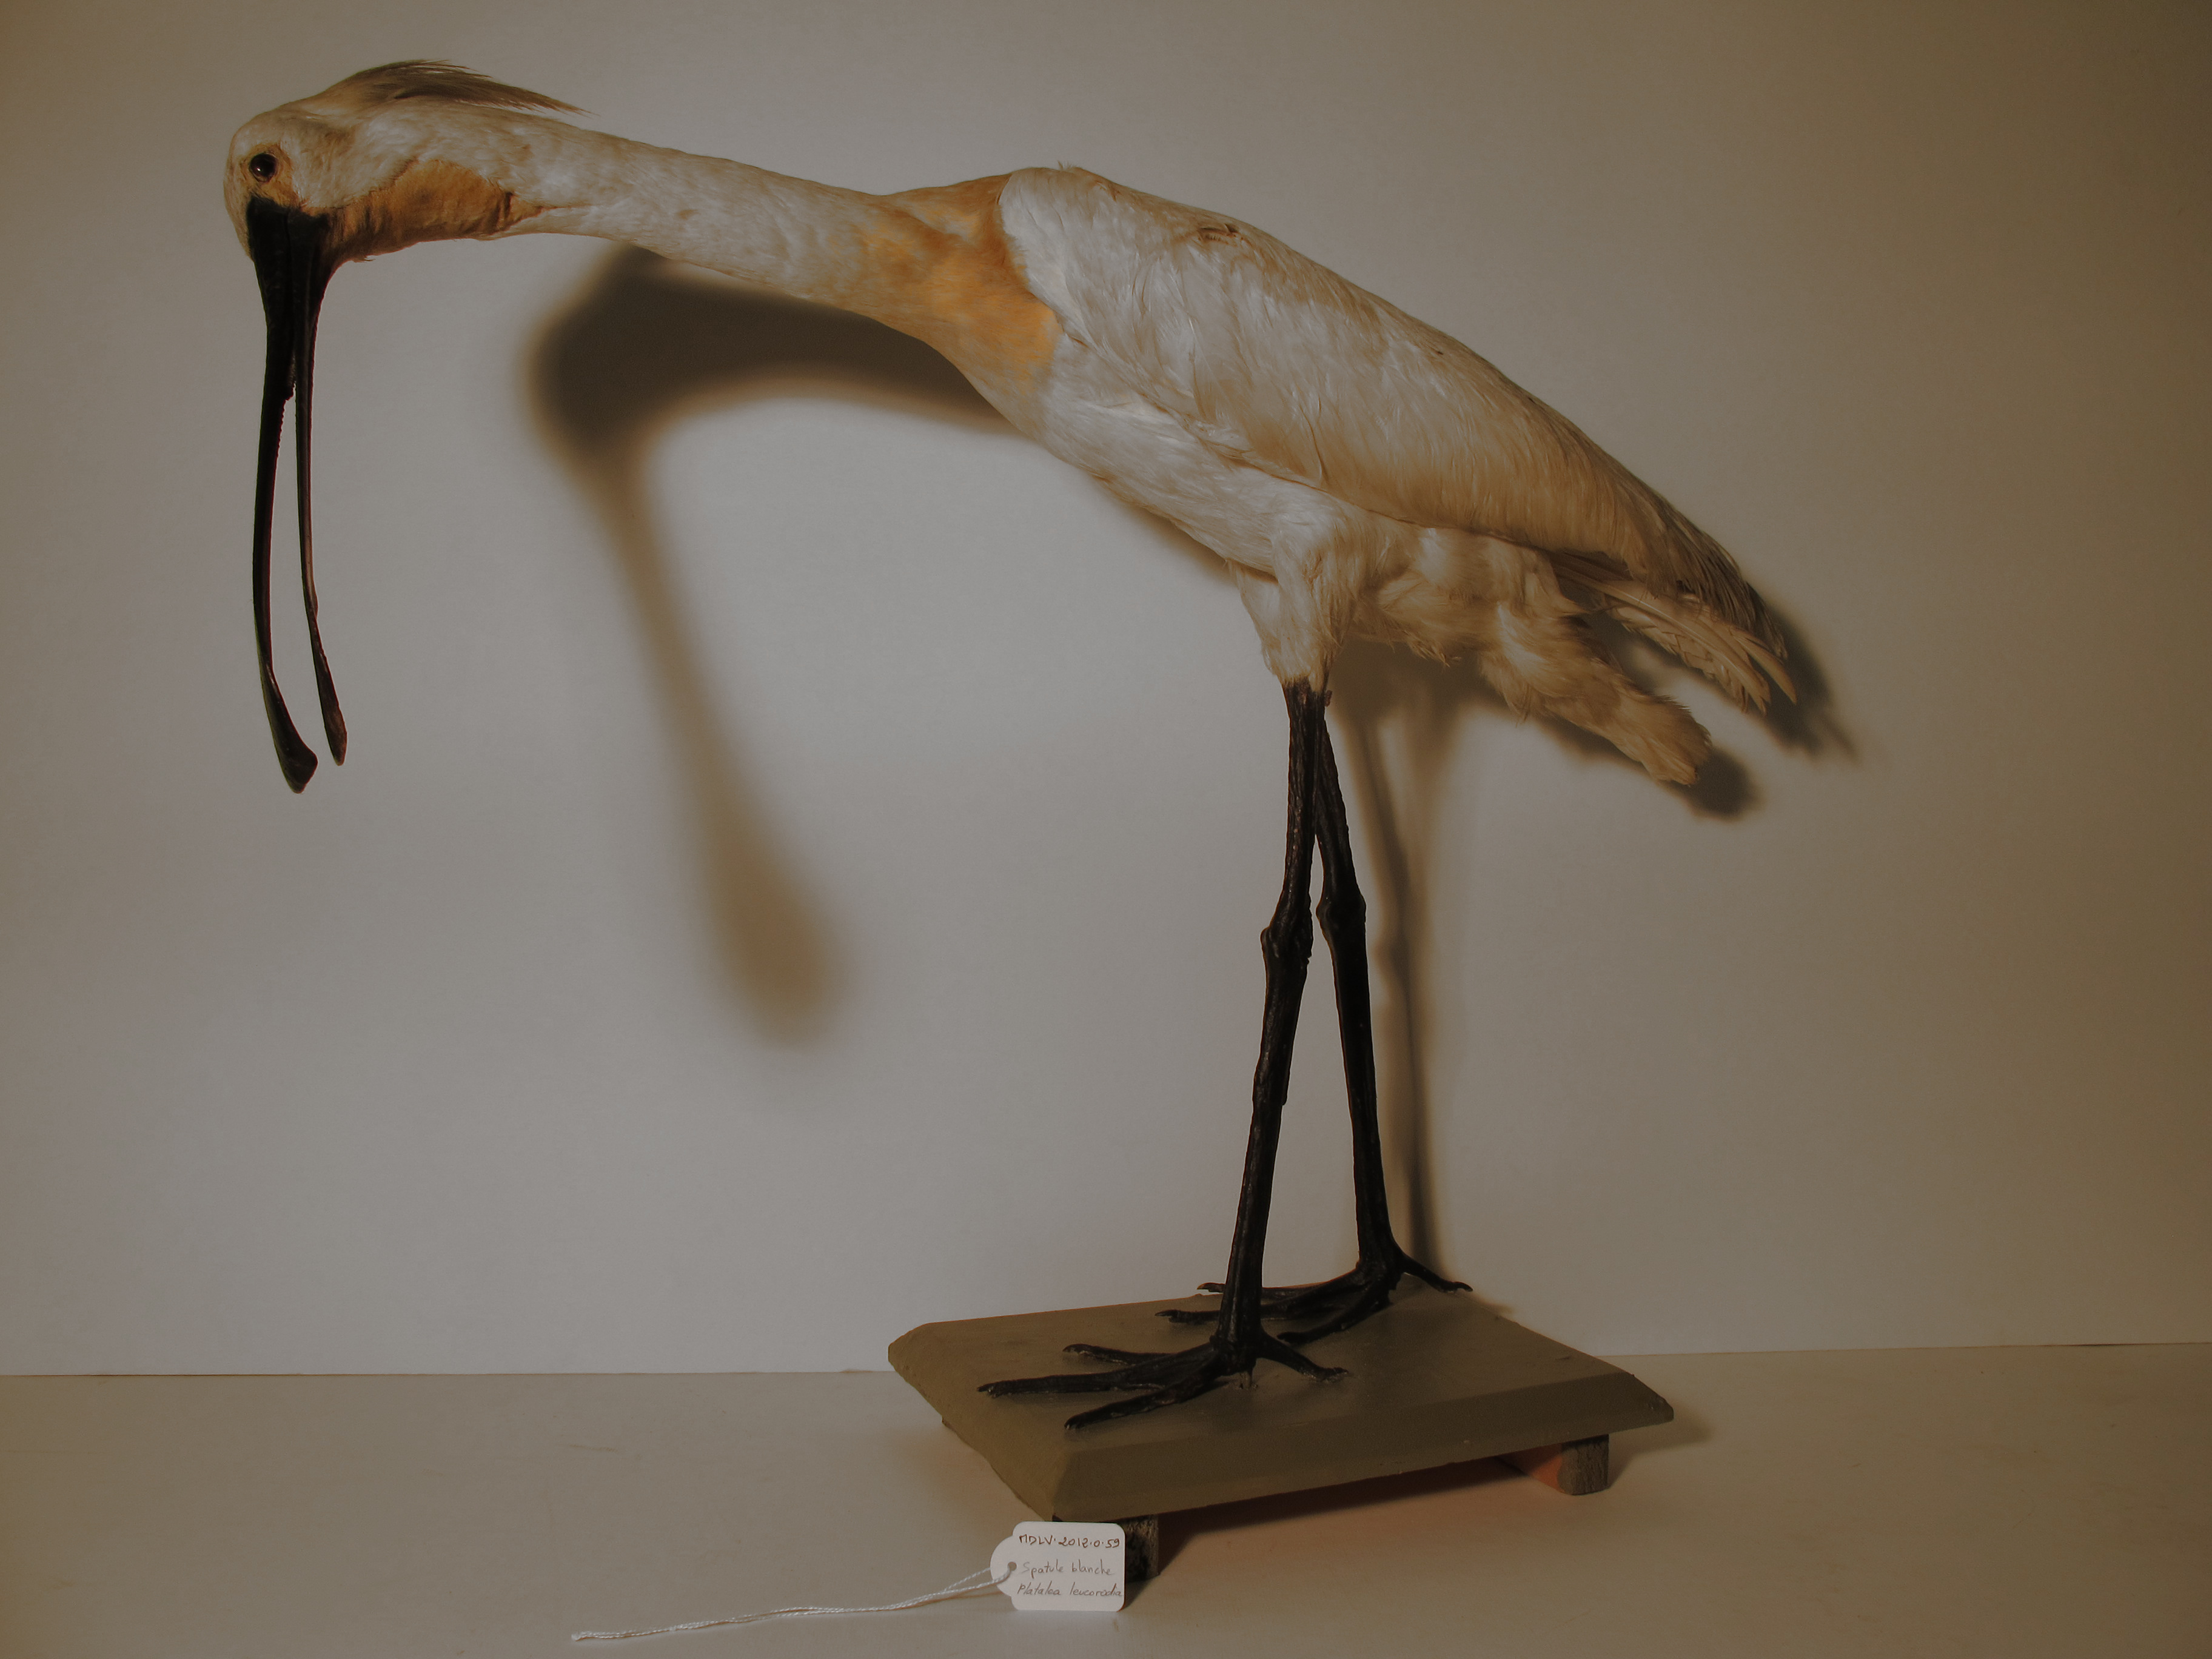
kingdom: Animalia
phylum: Chordata
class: Aves
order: Pelecaniformes
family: Threskiornithidae
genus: Platalea
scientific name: Platalea leucorodia
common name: Eurasian Spoonbill
